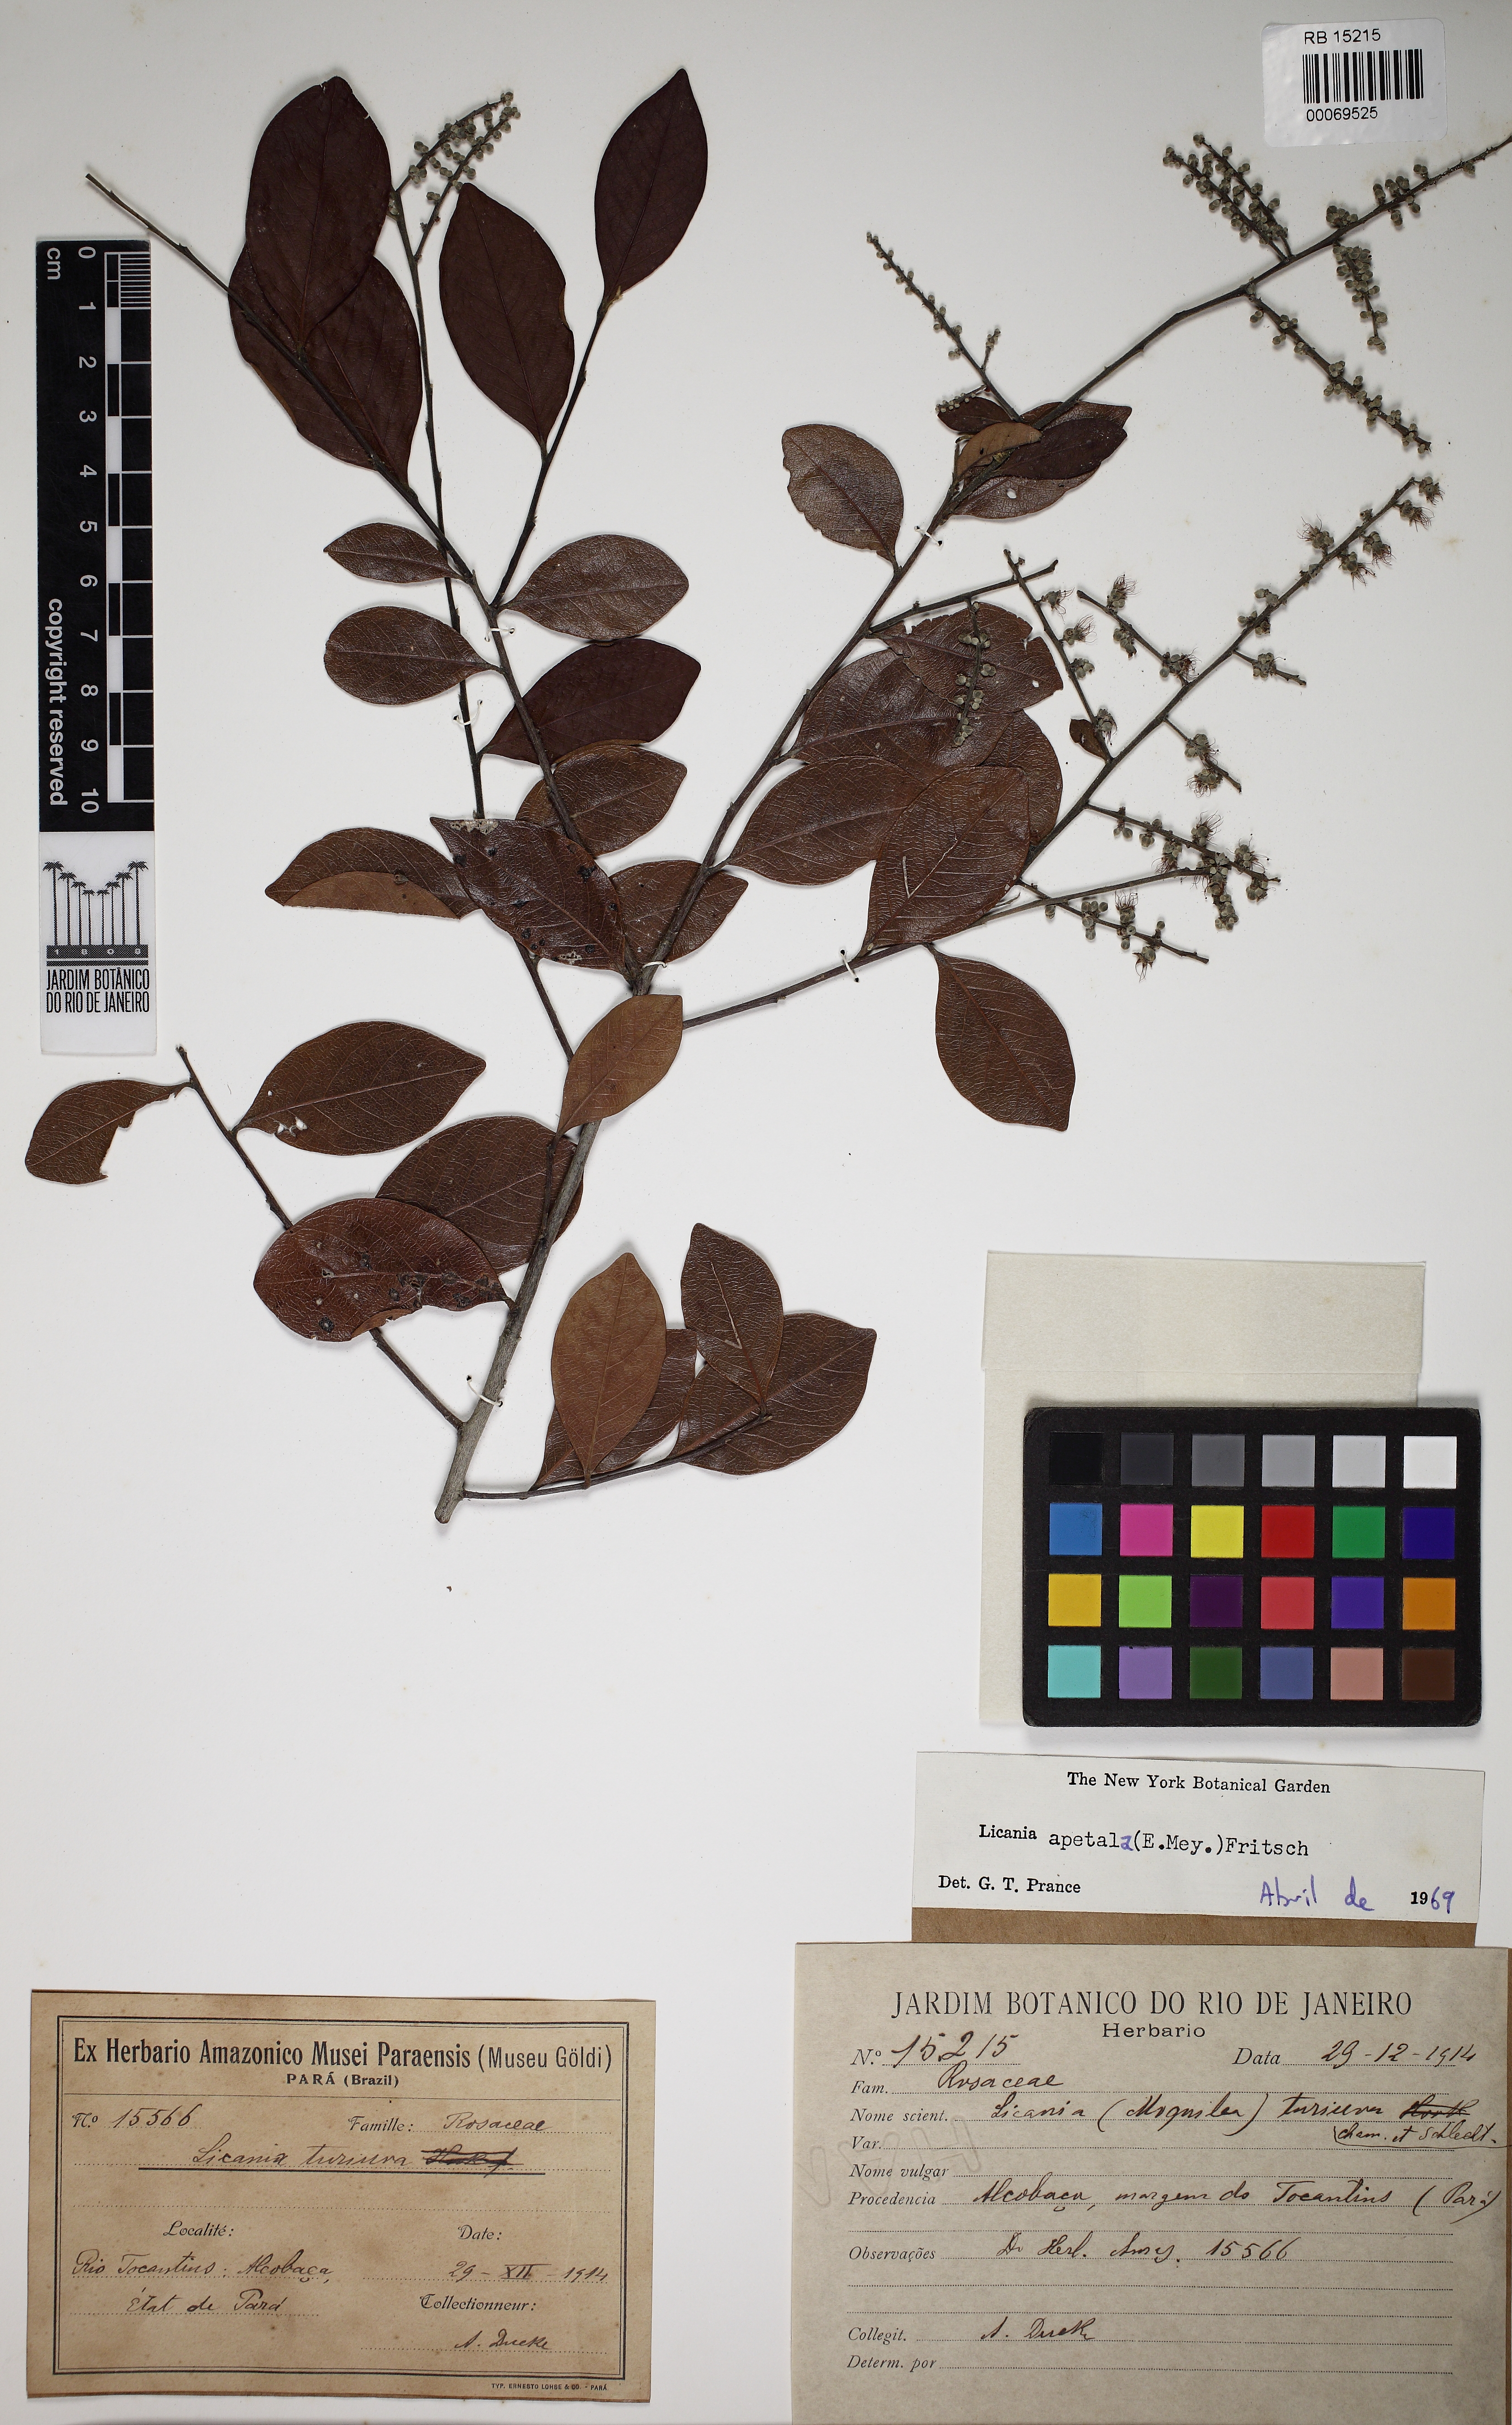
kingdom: Plantae
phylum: Tracheophyta
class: Magnoliopsida
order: Malpighiales
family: Chrysobalanaceae
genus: Leptobalanus
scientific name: Leptobalanus apetalus
